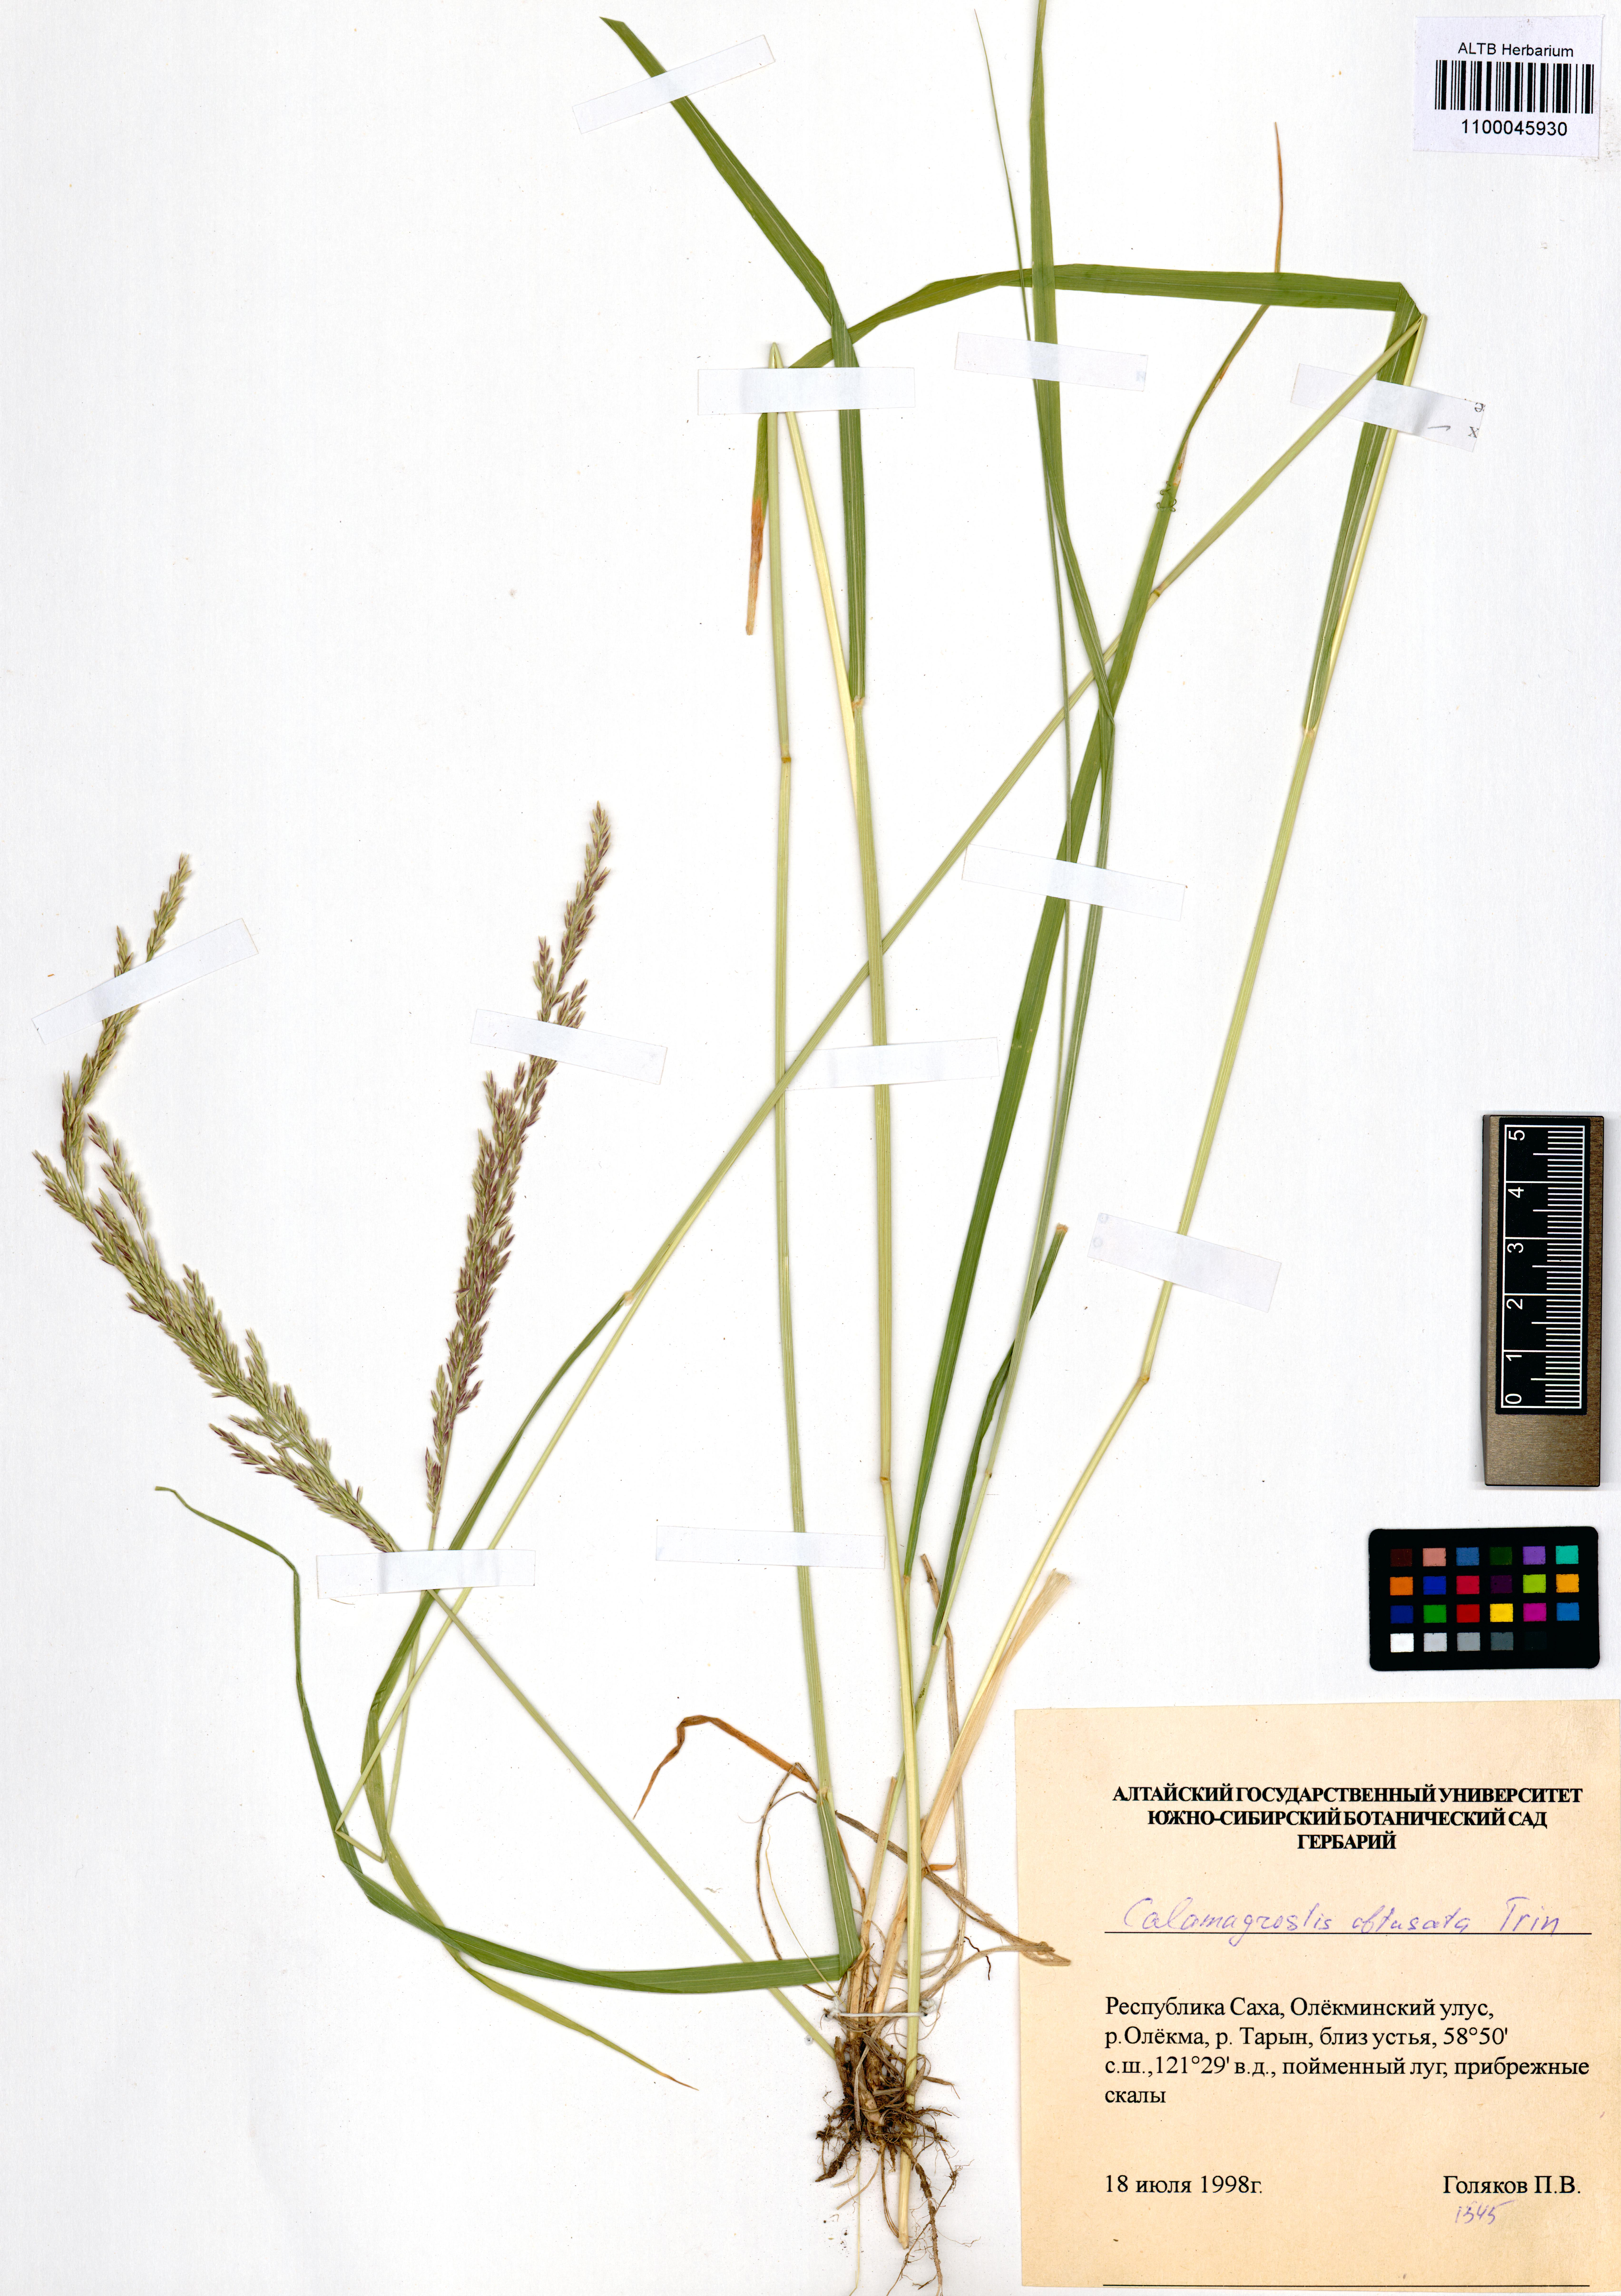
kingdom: Plantae
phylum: Tracheophyta
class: Liliopsida
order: Poales
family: Poaceae
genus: Calamagrostis
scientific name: Calamagrostis obtusata
